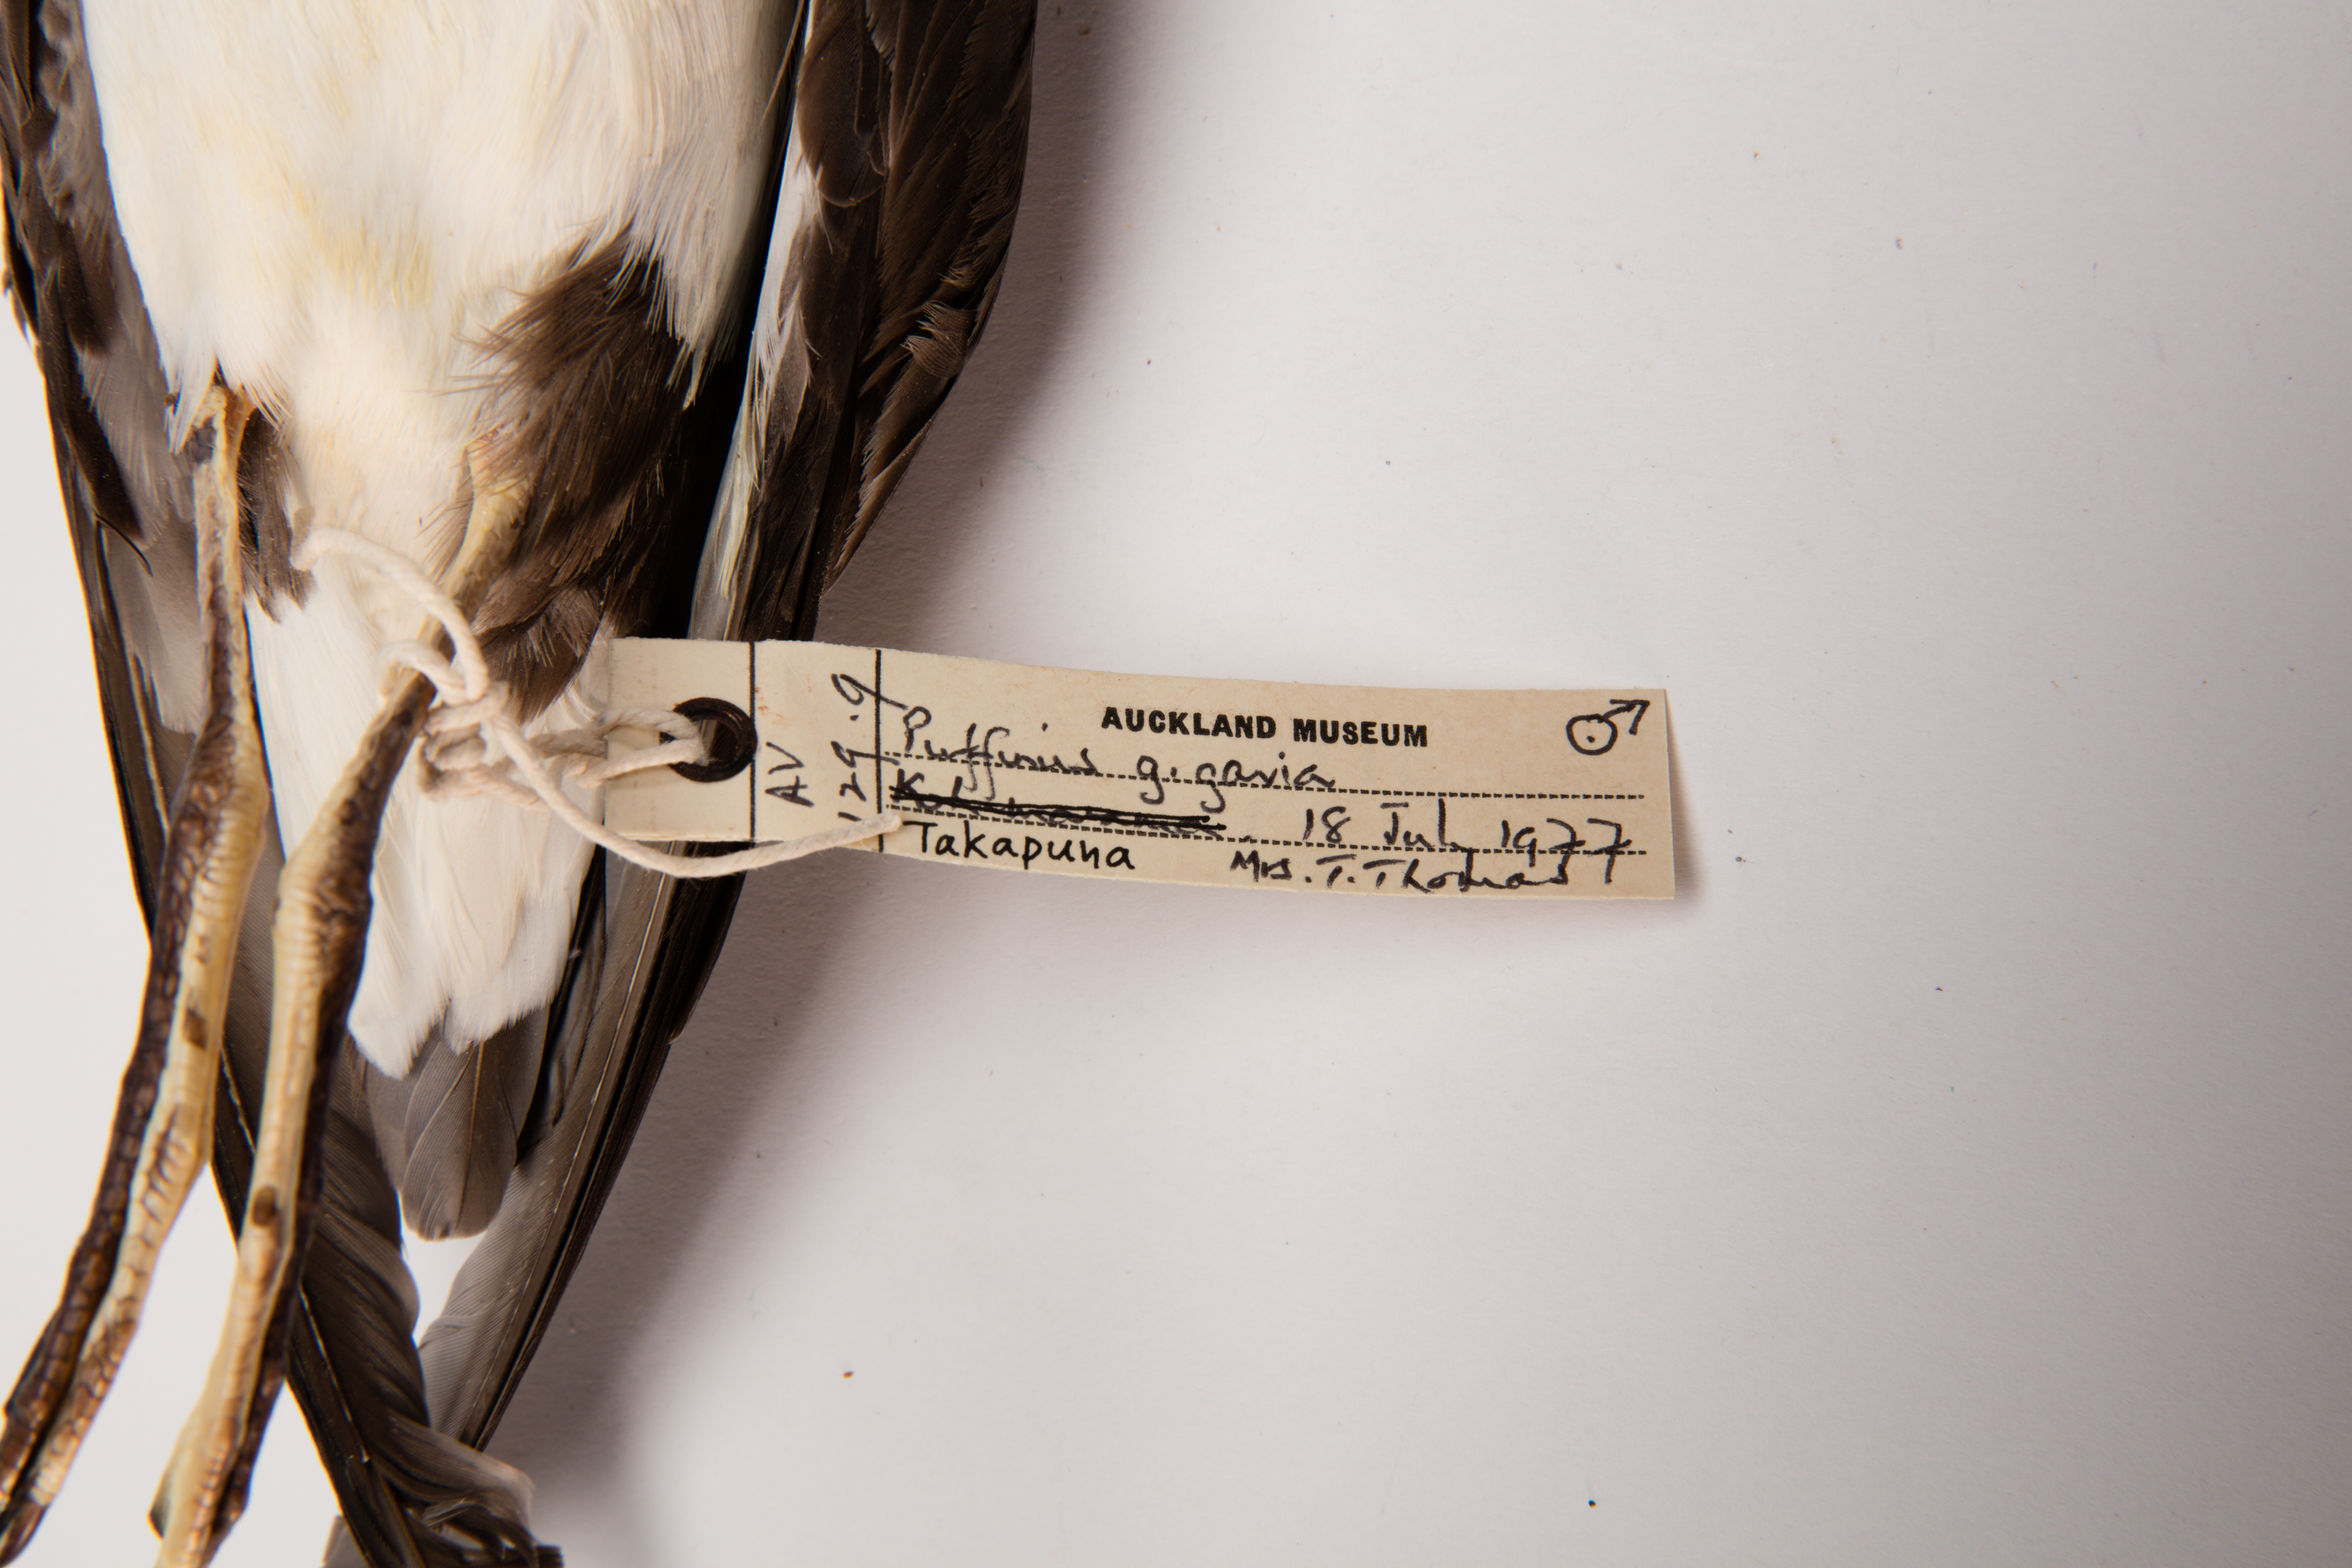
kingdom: Animalia
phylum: Chordata
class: Aves
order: Procellariiformes
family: Procellariidae
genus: Ardenna
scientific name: Ardenna
